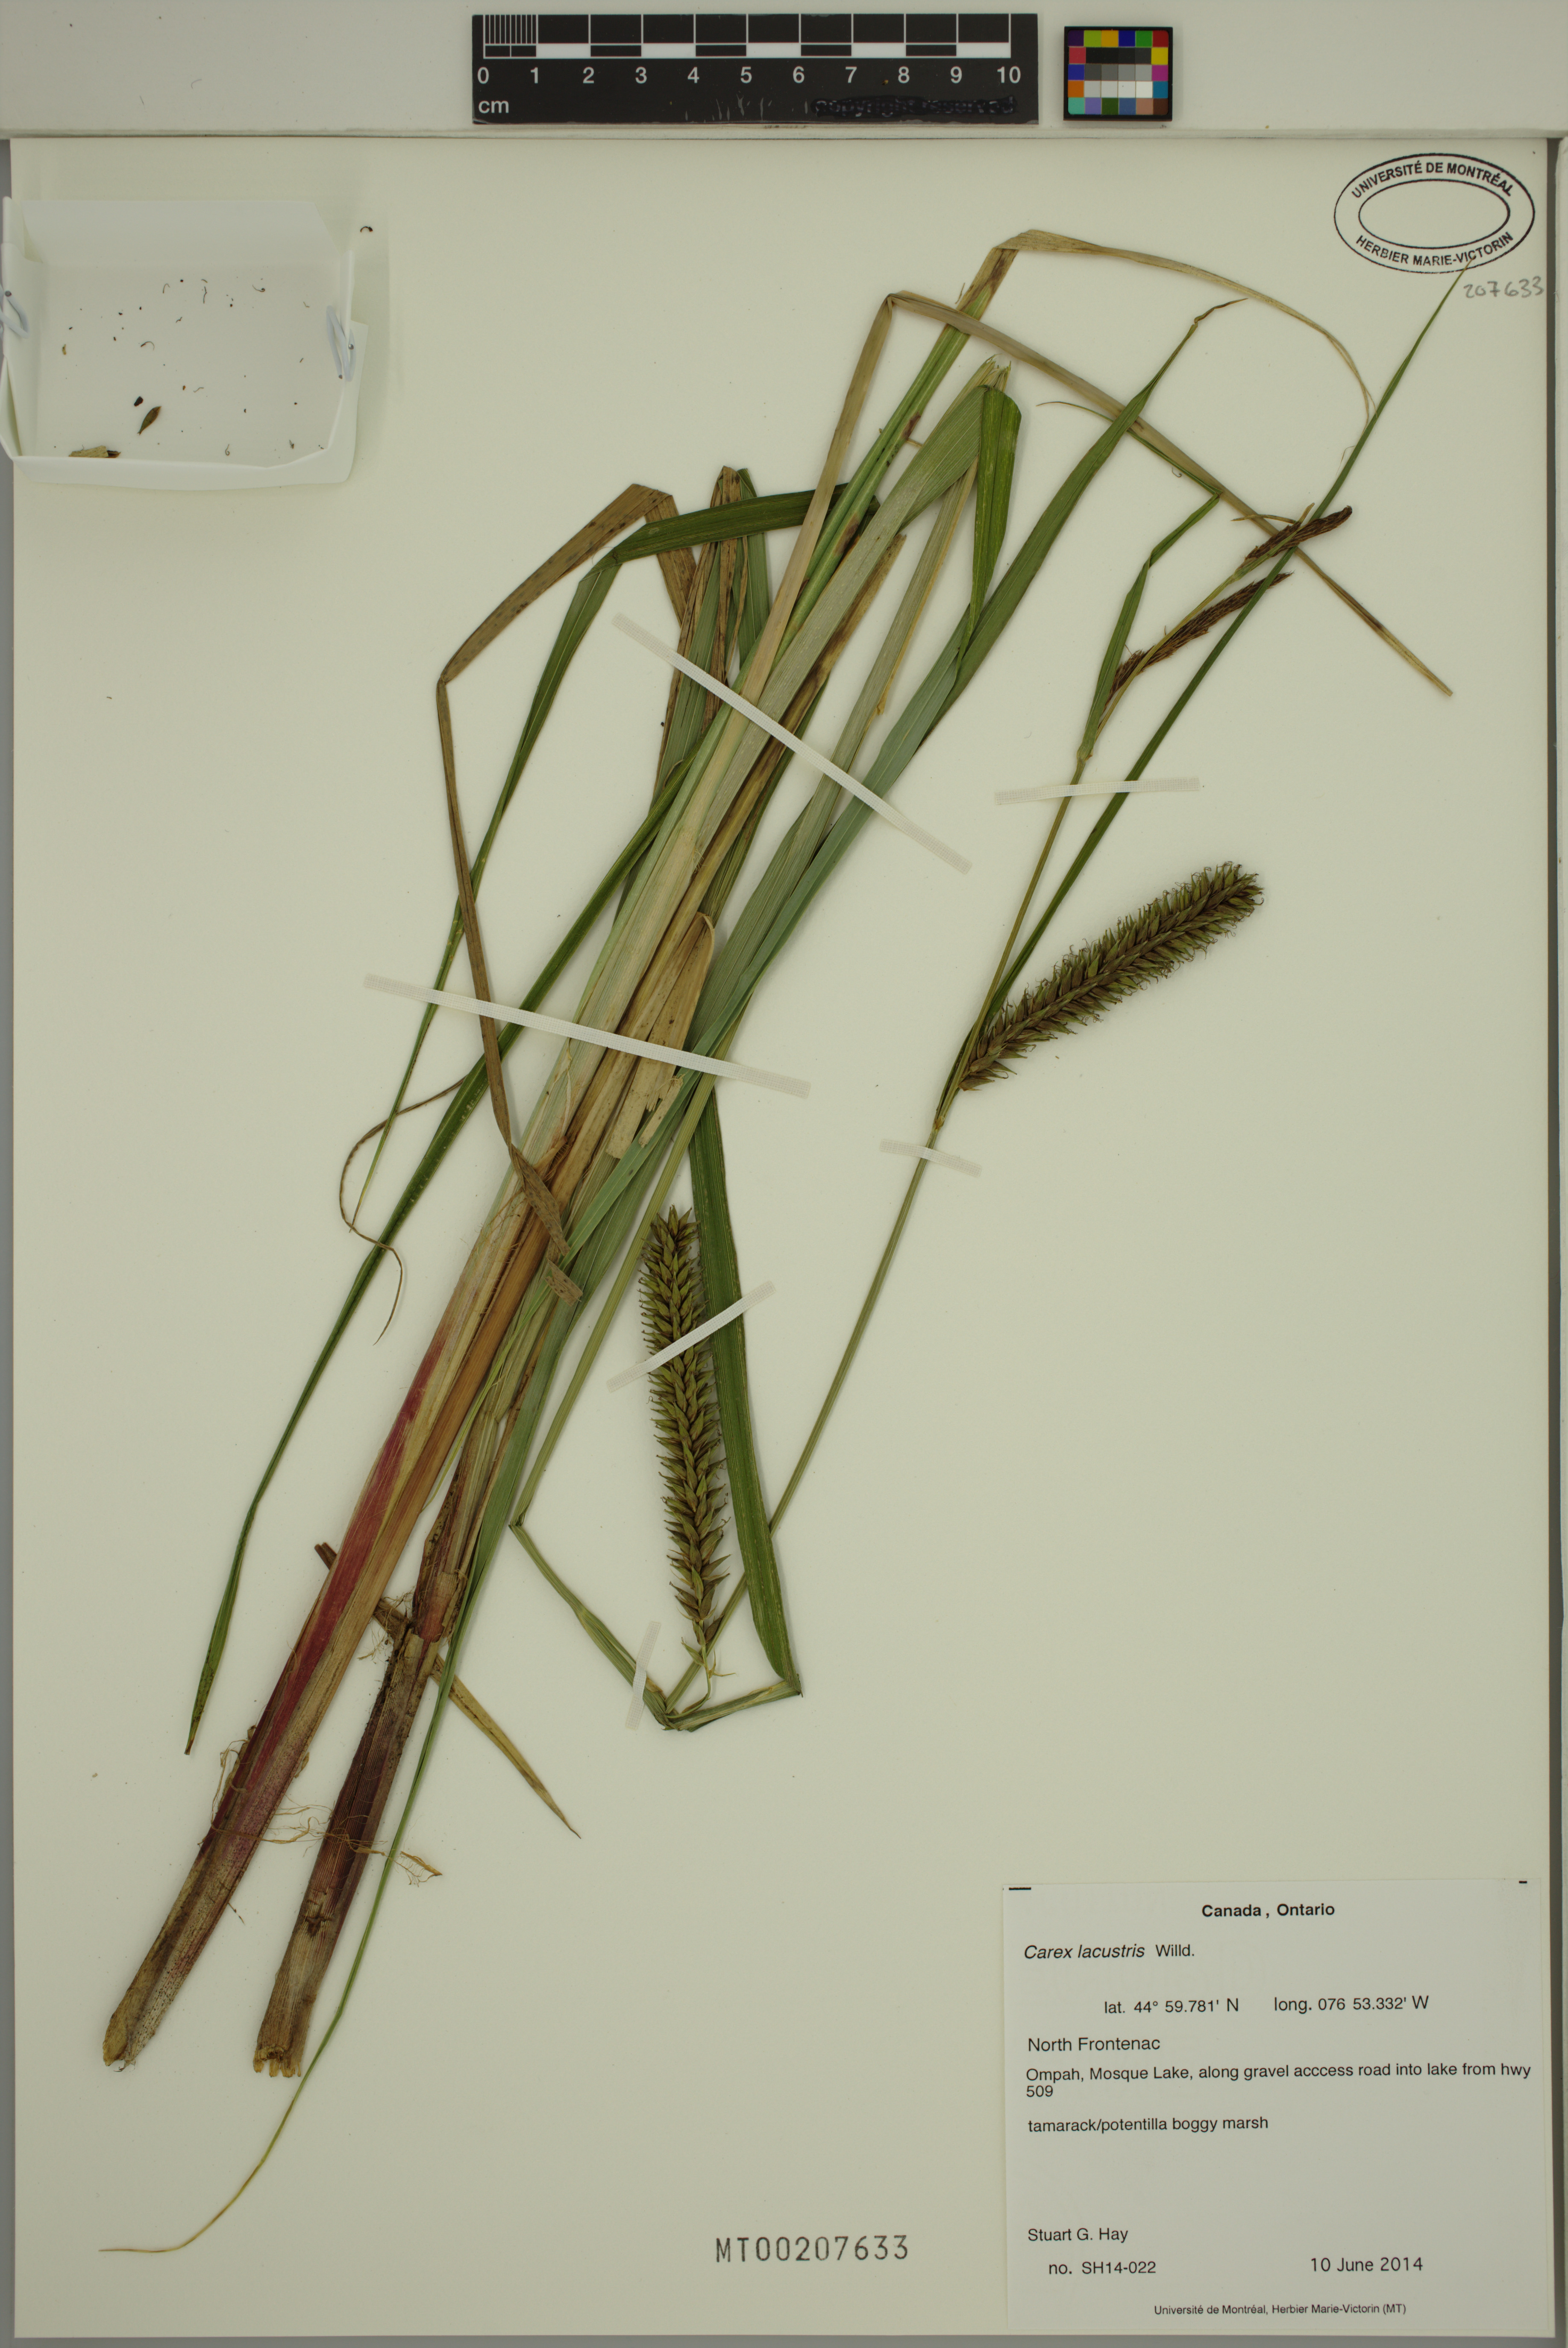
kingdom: Plantae
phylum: Tracheophyta
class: Liliopsida
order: Poales
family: Cyperaceae
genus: Carex
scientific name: Carex lacustris
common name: Common lake sedge
